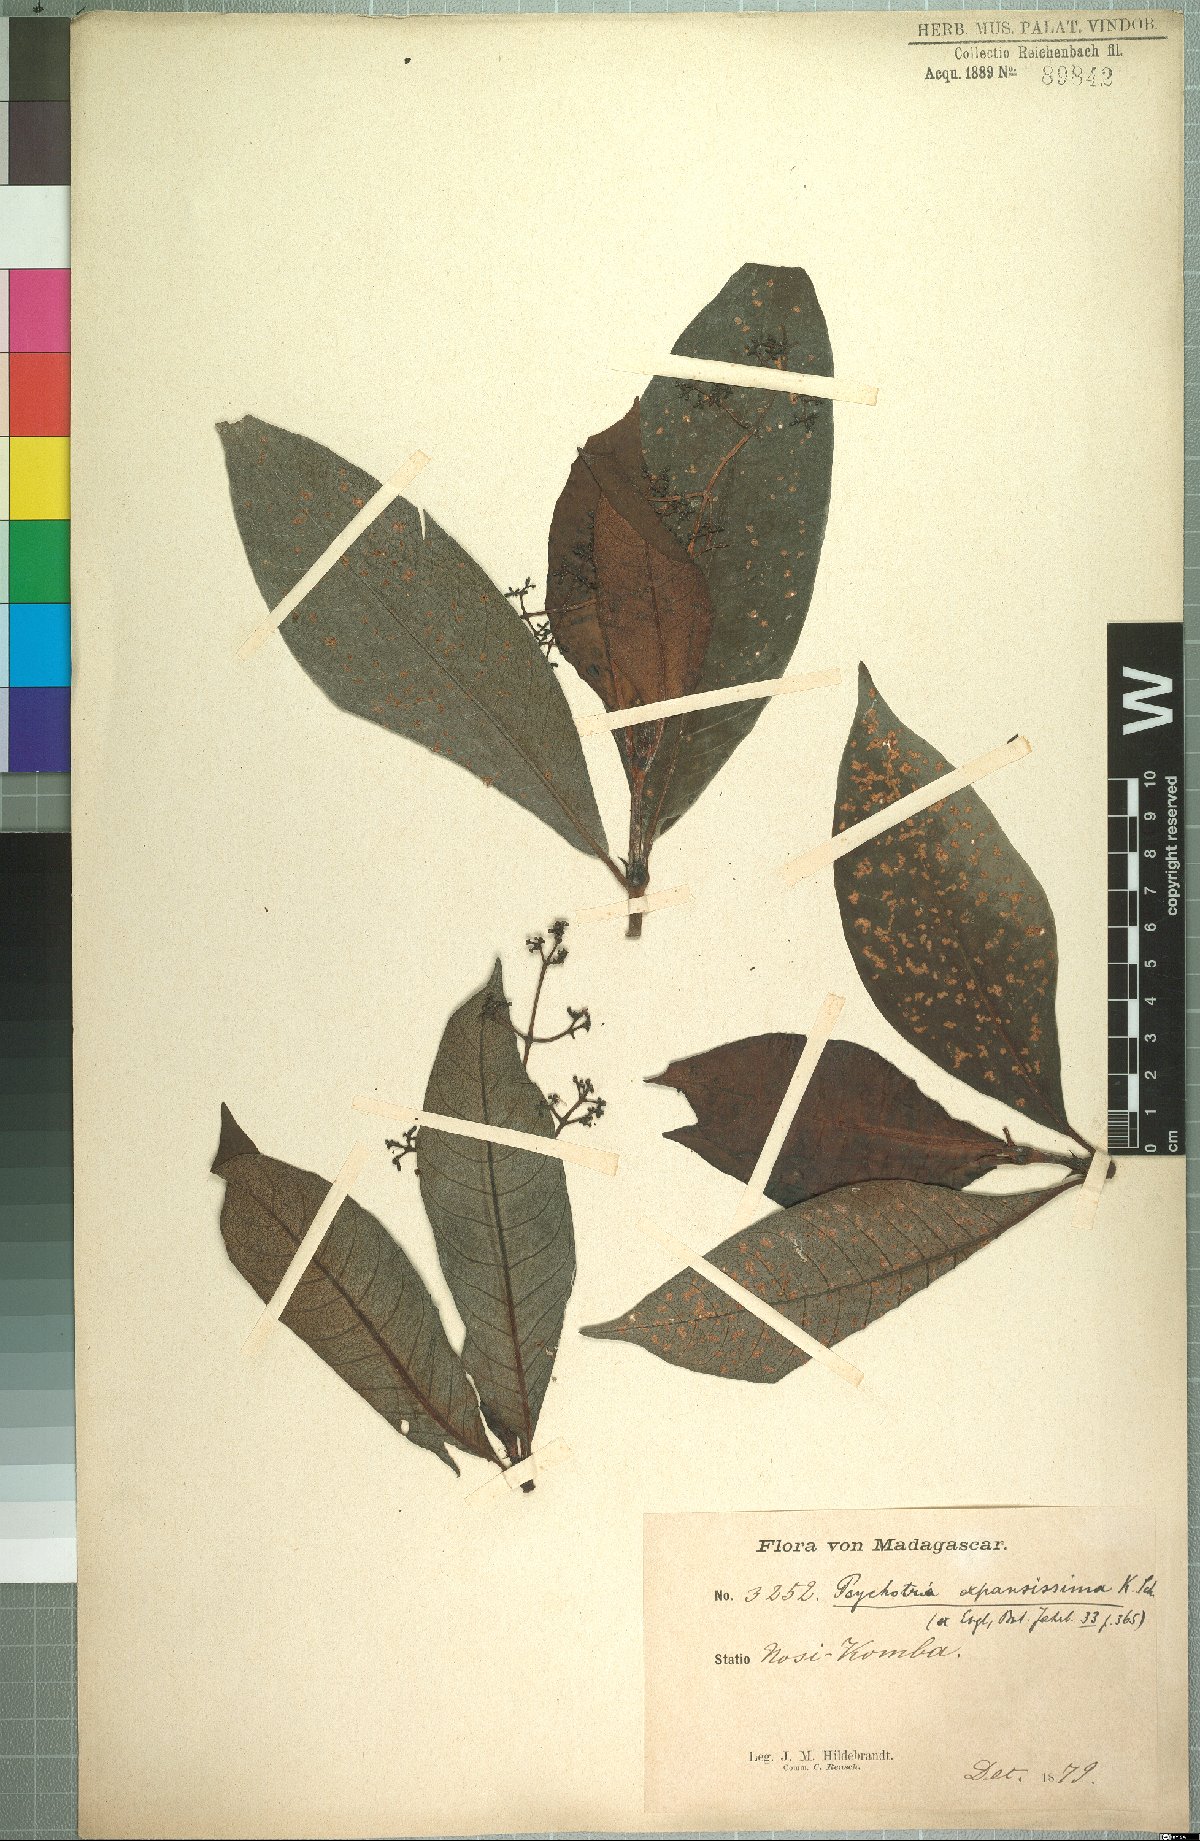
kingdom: Plantae
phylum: Tracheophyta
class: Magnoliopsida
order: Gentianales
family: Rubiaceae
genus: Psychotria
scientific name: Psychotria expansissima
